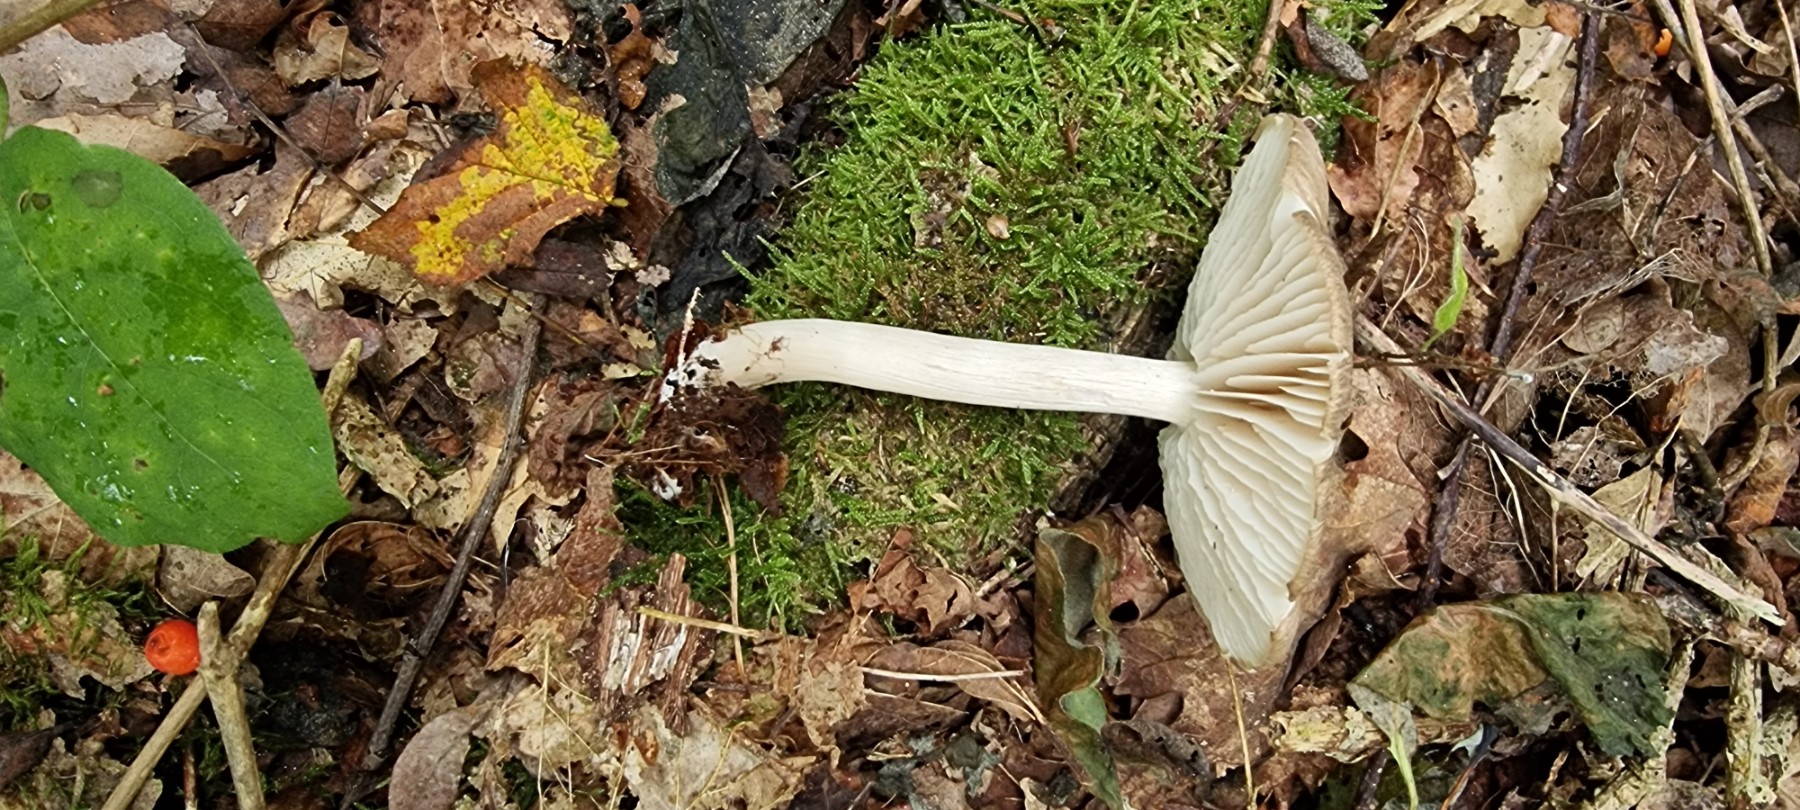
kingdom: Fungi
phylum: Basidiomycota
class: Agaricomycetes
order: Agaricales
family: Tricholomataceae
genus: Megacollybia
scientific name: Megacollybia platyphylla
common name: bredbladet væbnerhat
